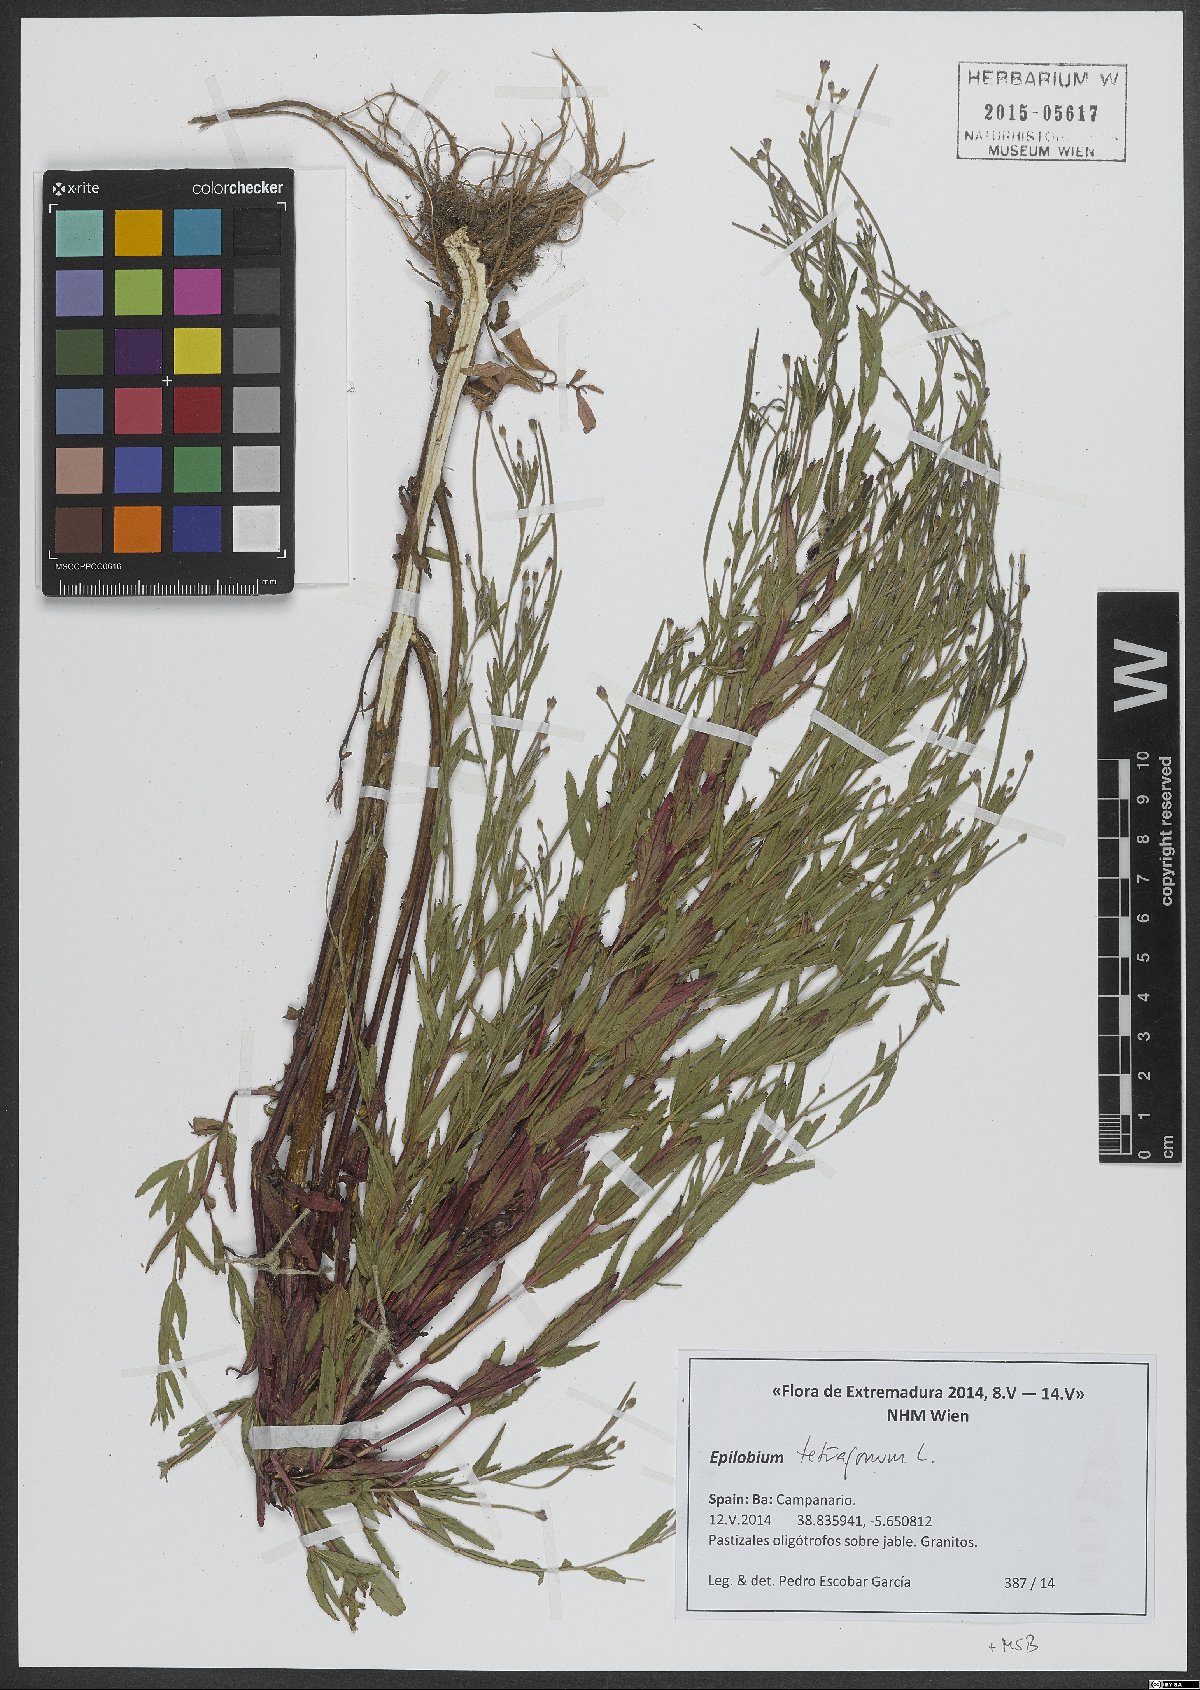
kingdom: Plantae
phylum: Tracheophyta
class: Magnoliopsida
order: Myrtales
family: Onagraceae
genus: Epilobium
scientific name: Epilobium tetragonum
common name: Square-stemmed willowherb
